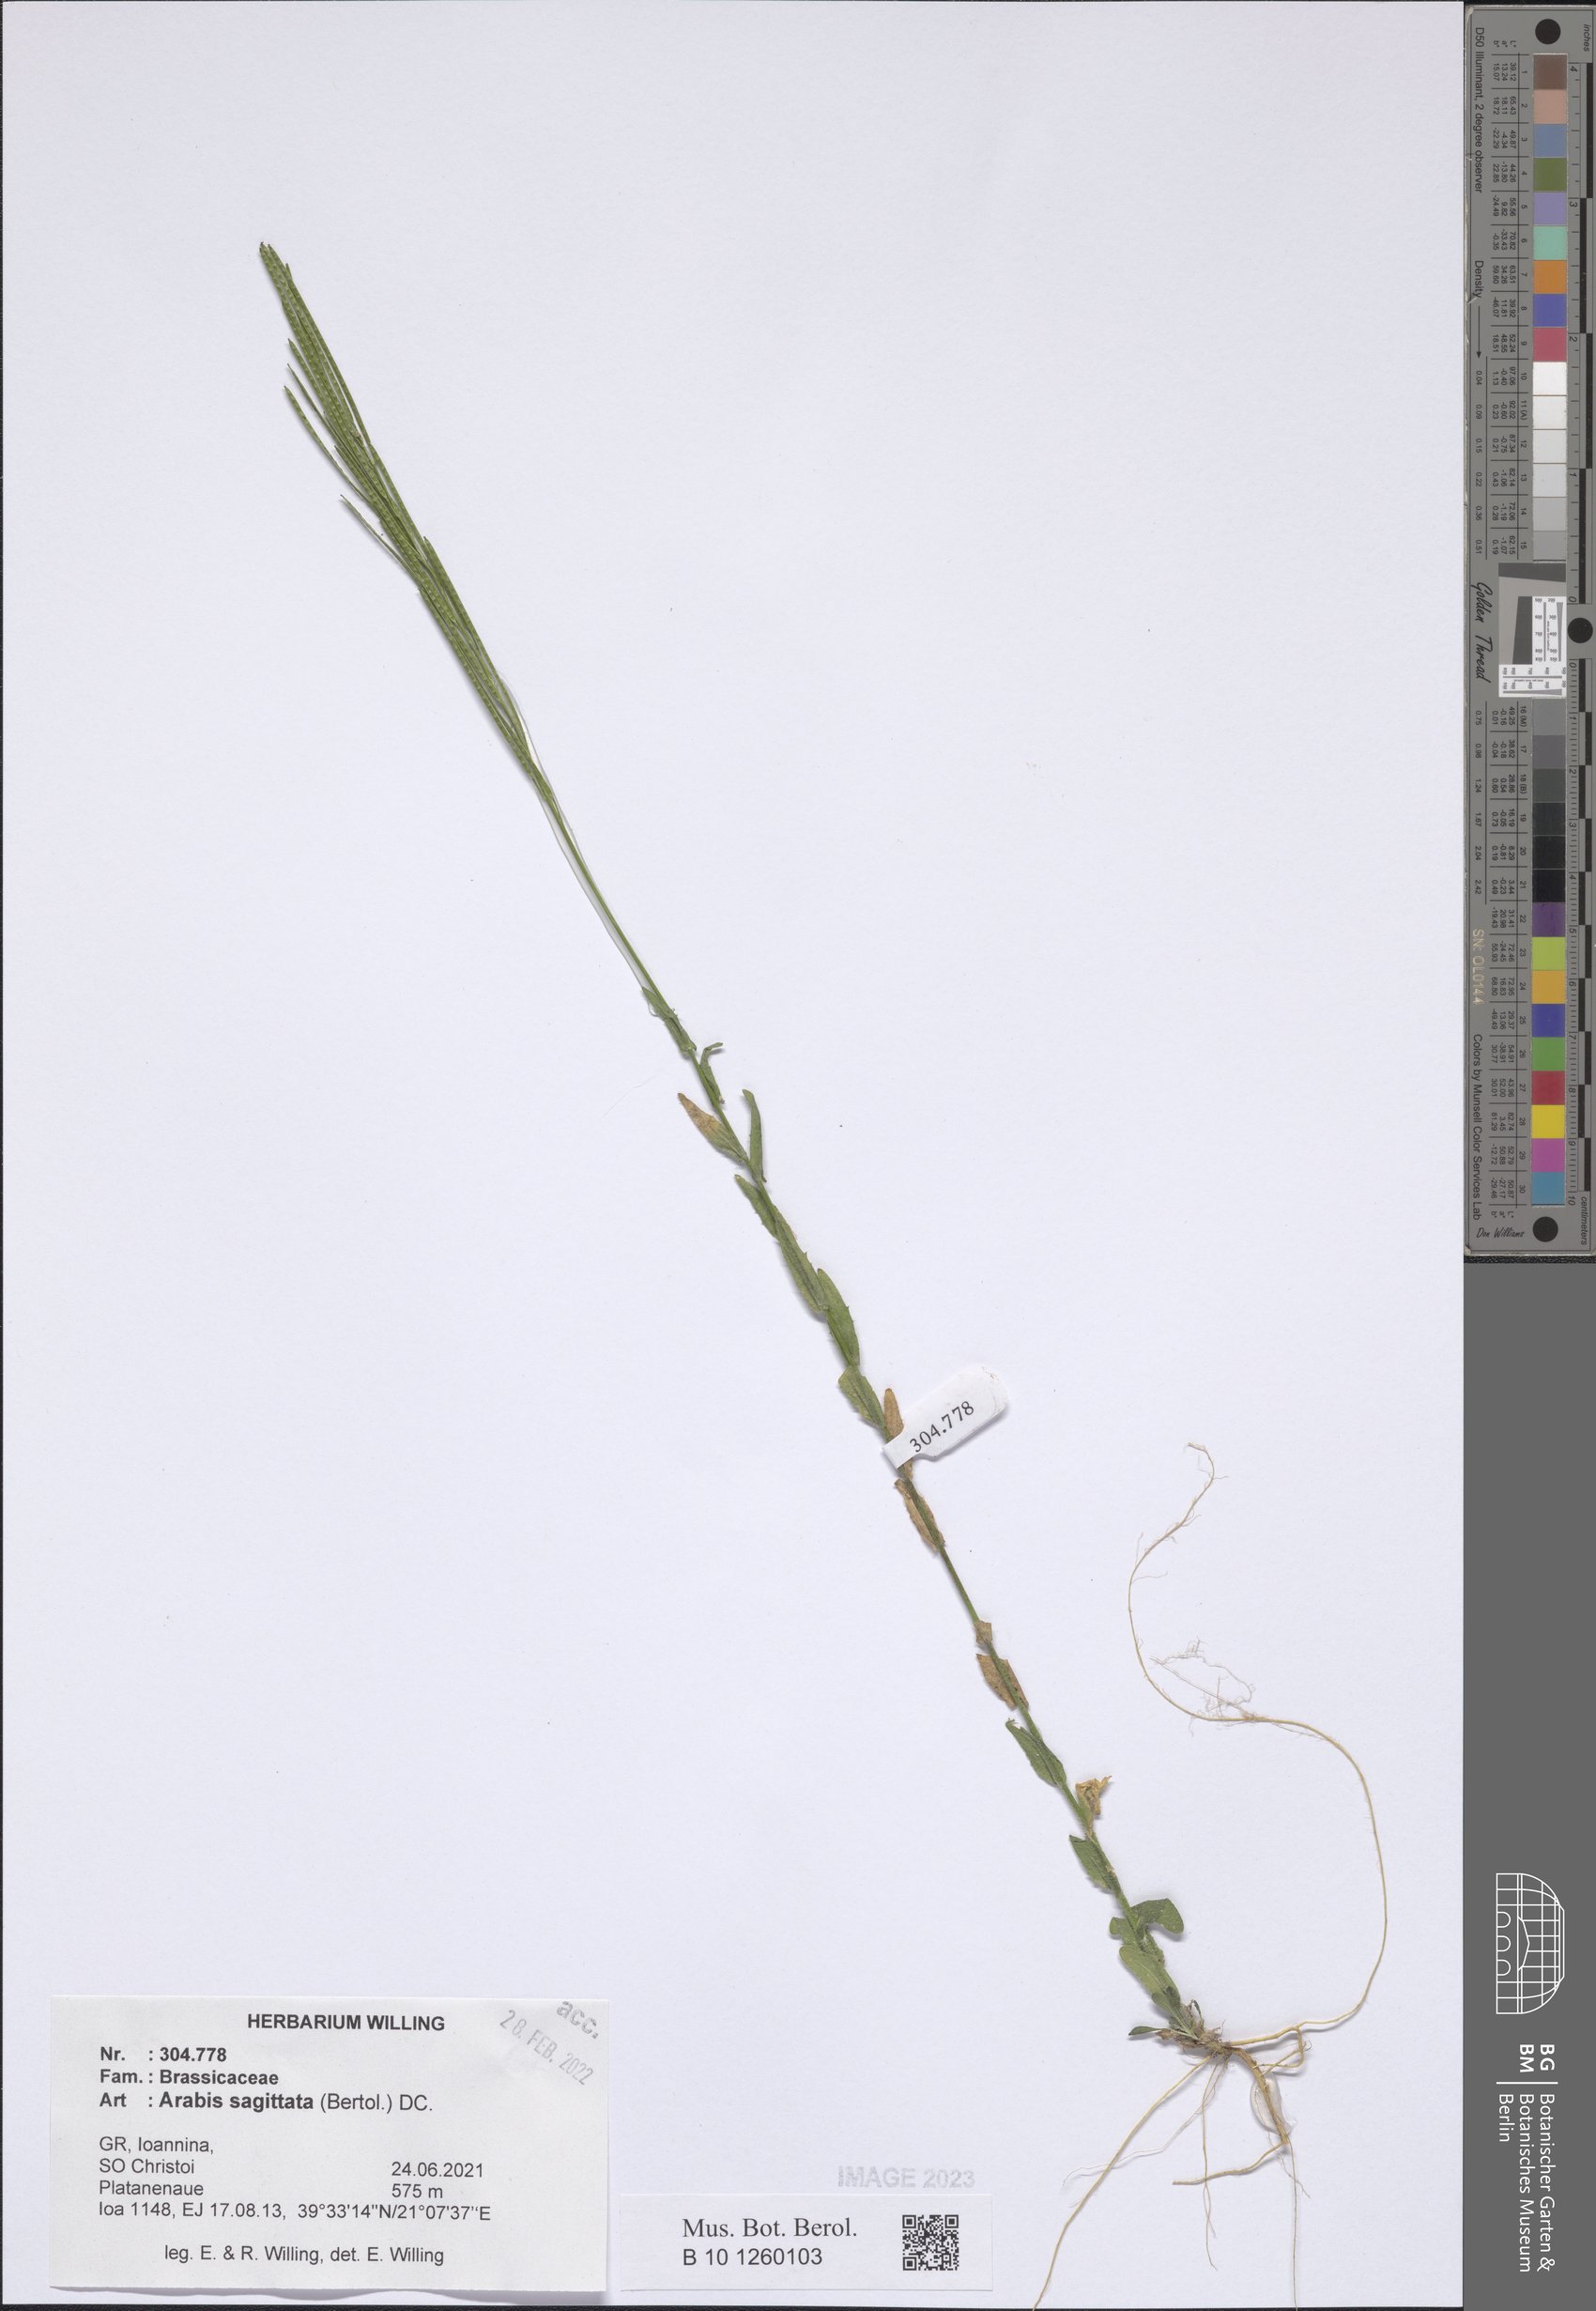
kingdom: Plantae
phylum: Tracheophyta
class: Magnoliopsida
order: Brassicales
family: Brassicaceae
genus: Arabis
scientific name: Arabis sagittata
